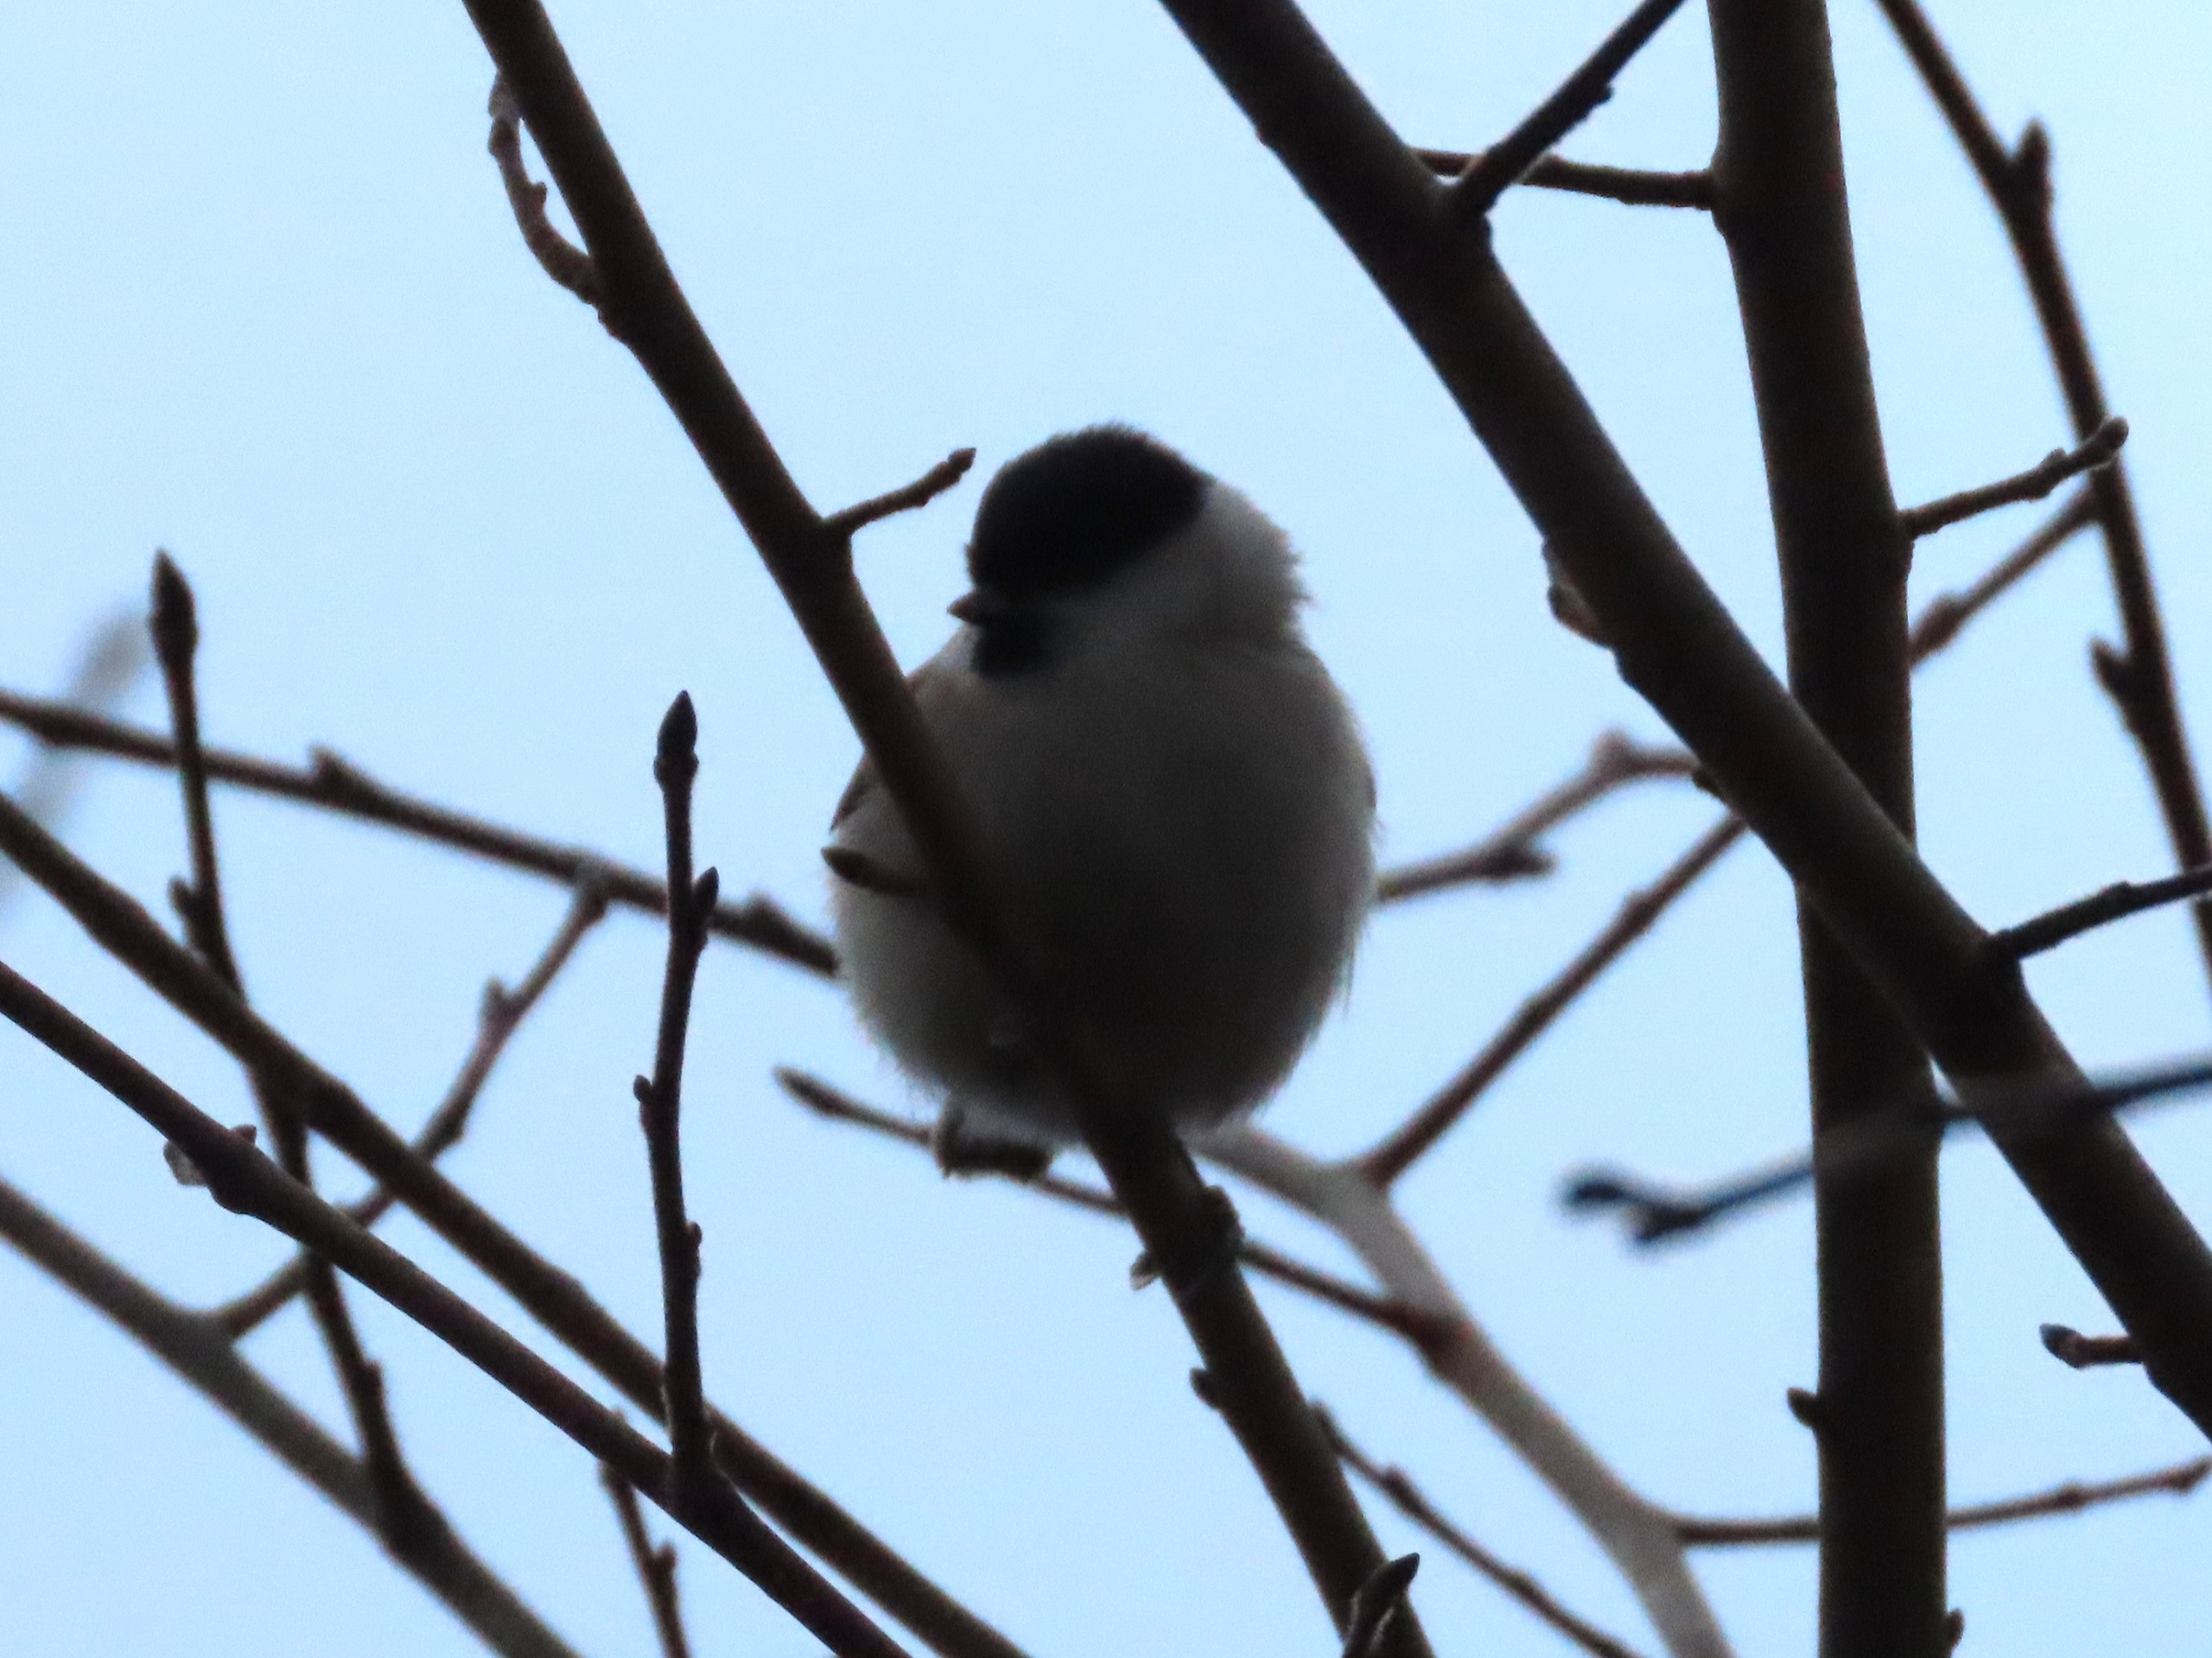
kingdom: Animalia
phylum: Chordata
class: Aves
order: Passeriformes
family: Paridae
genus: Poecile
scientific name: Poecile palustris
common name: Sumpmejse
